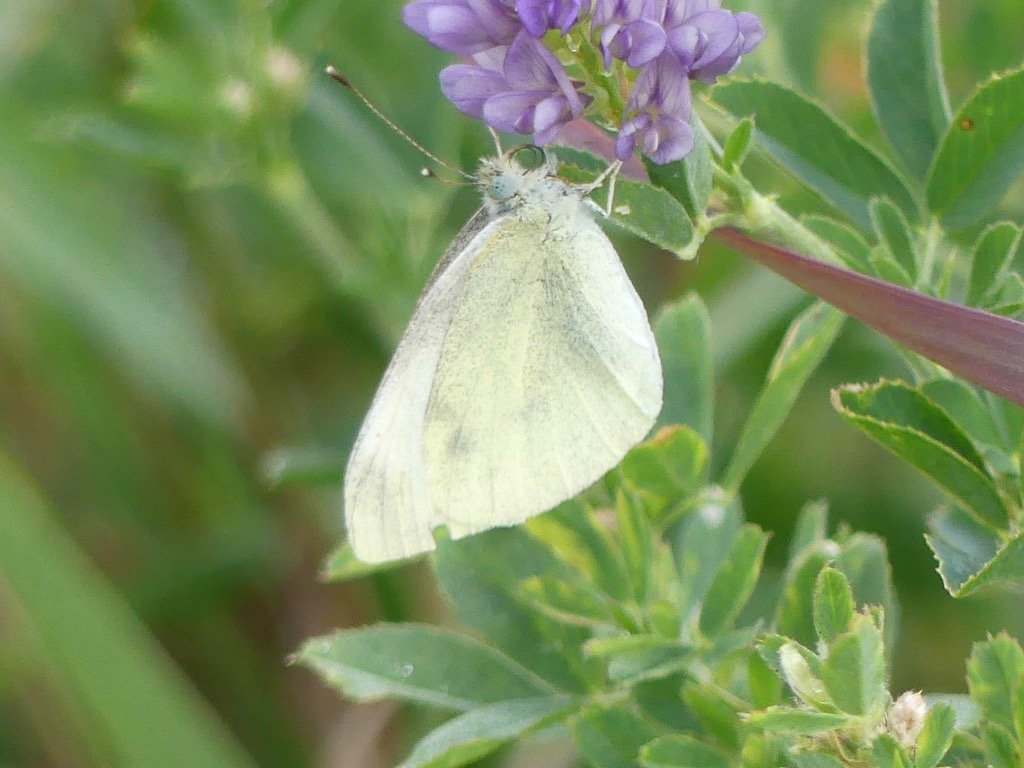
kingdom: Animalia
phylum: Arthropoda
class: Insecta
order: Lepidoptera
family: Pieridae
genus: Pieris
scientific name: Pieris rapae
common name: Cabbage White
